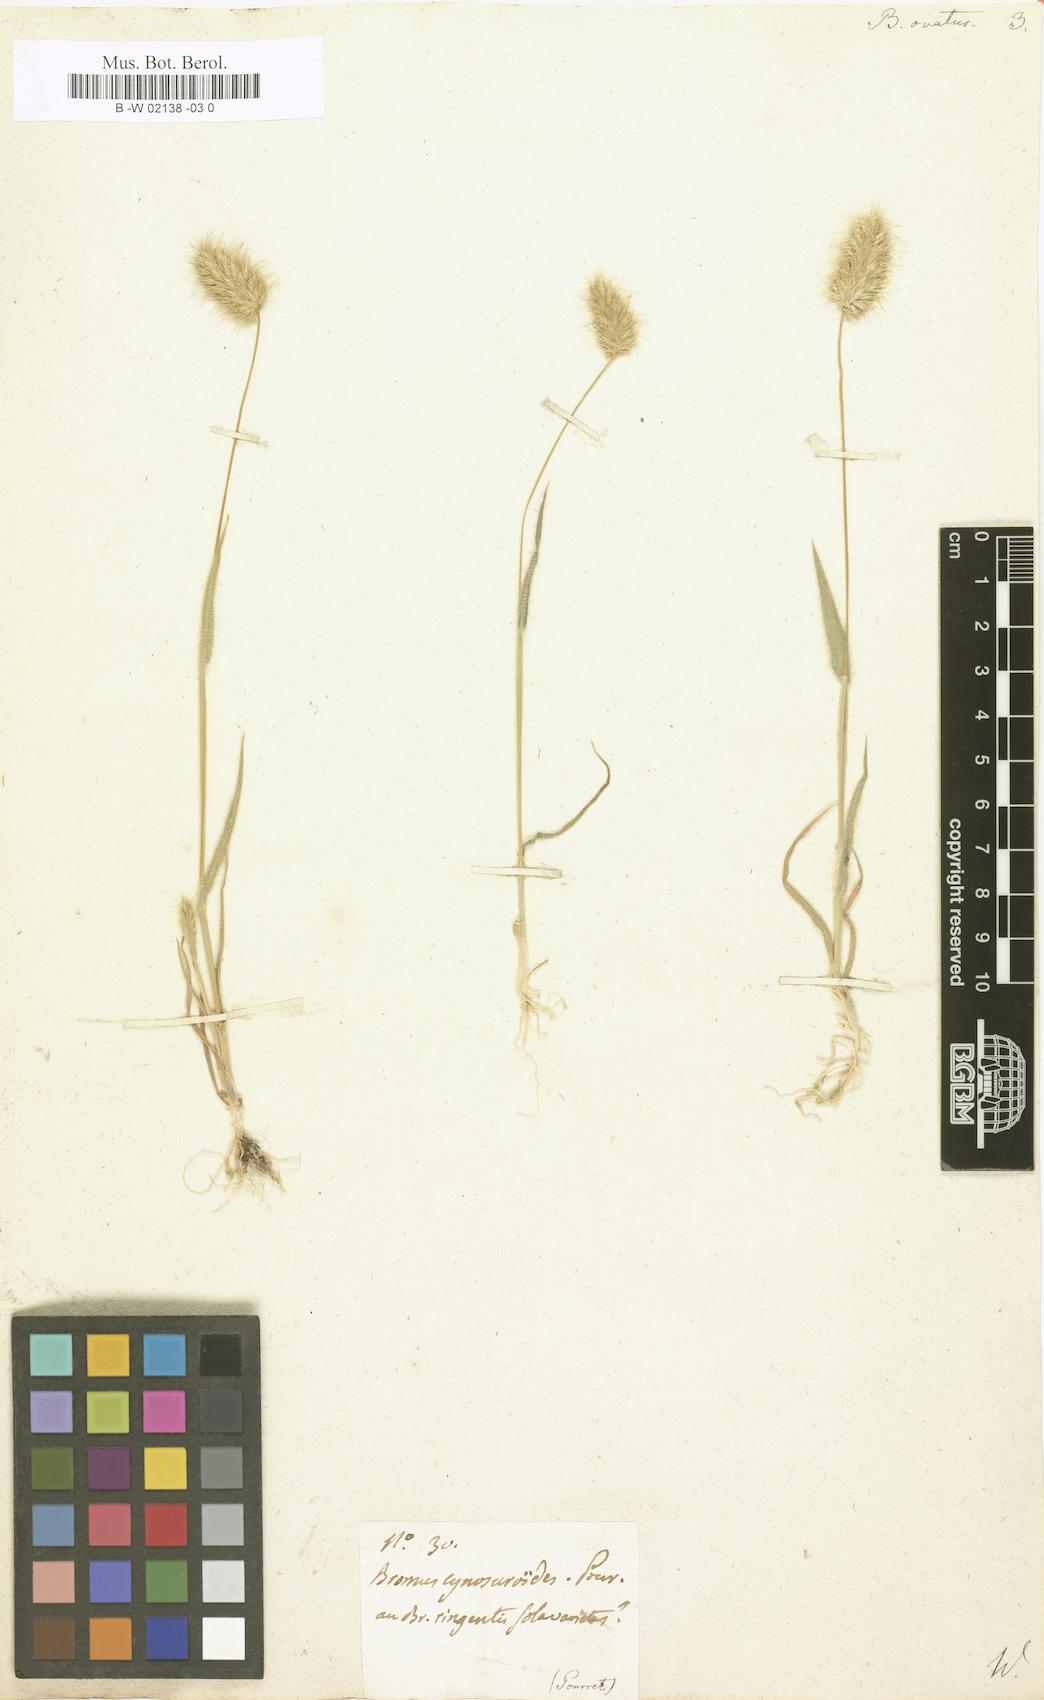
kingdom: Plantae
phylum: Tracheophyta
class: Liliopsida
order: Poales
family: Poaceae
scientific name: Poaceae
